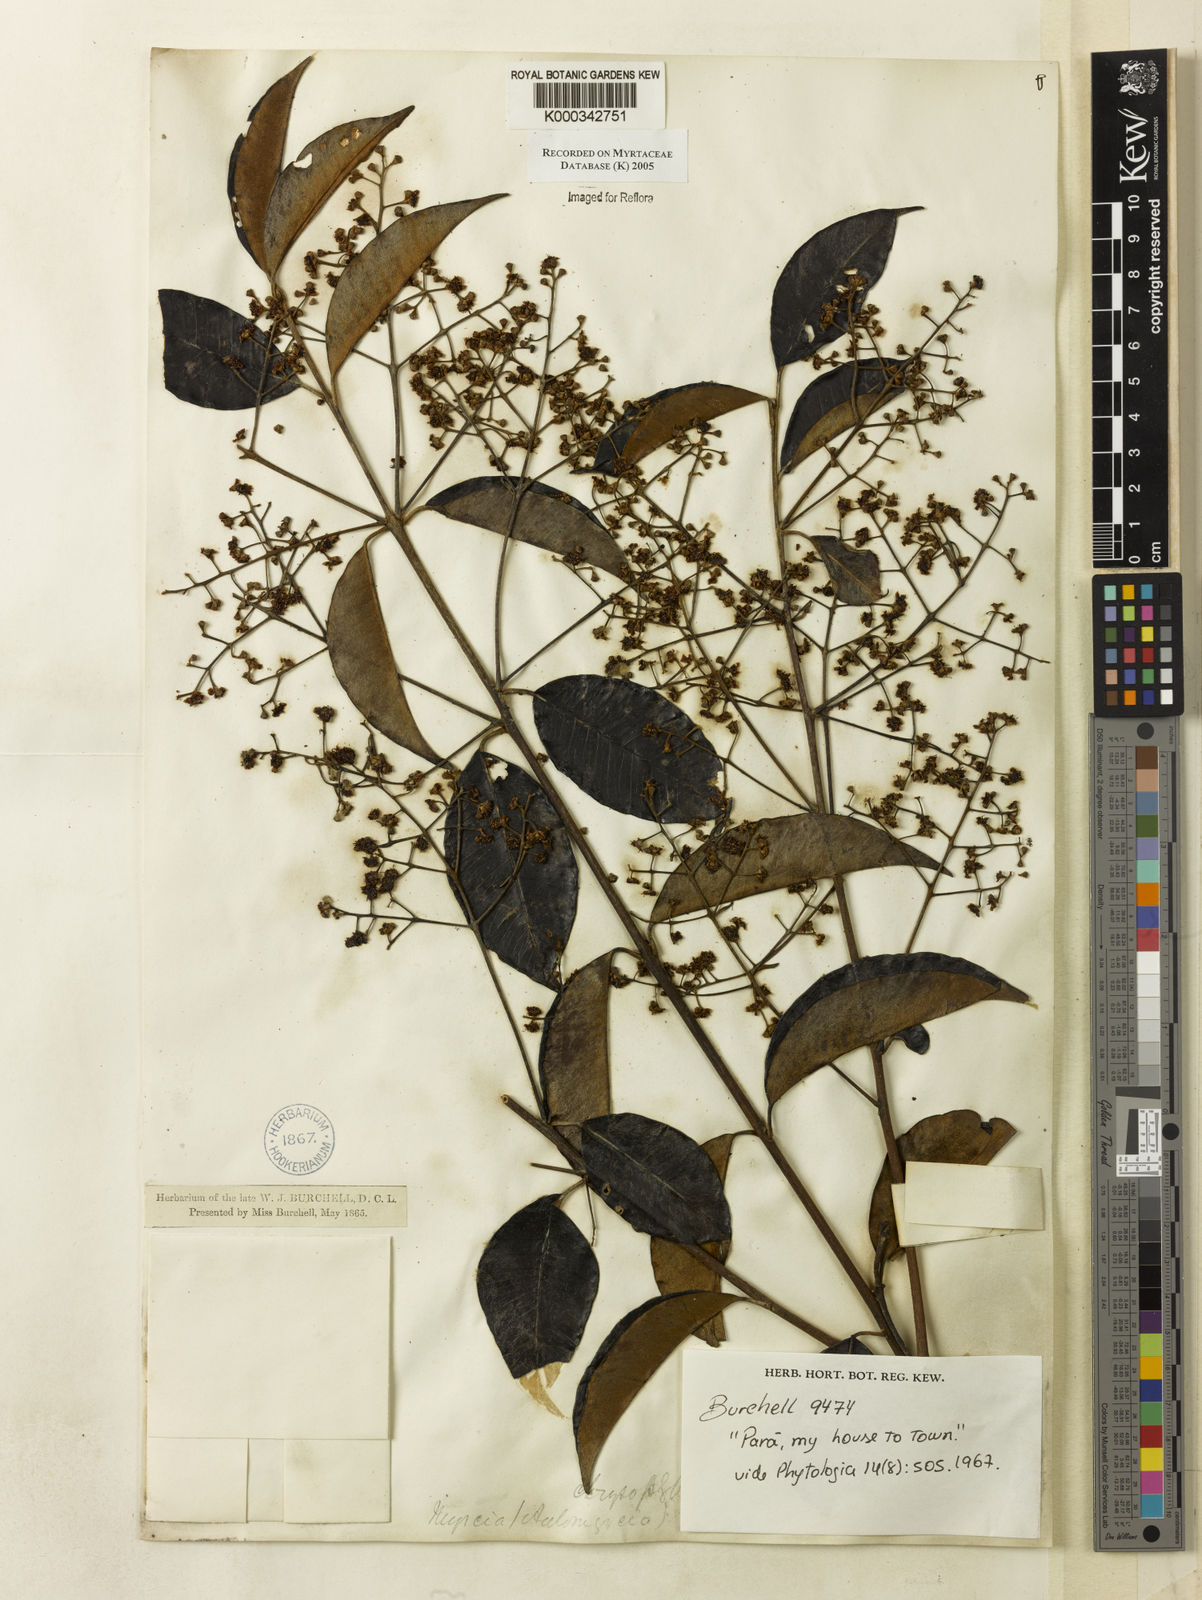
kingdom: Plantae
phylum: Tracheophyta
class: Magnoliopsida
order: Myrtales
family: Myrtaceae
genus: Myrcia
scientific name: Myrcia cuprea
